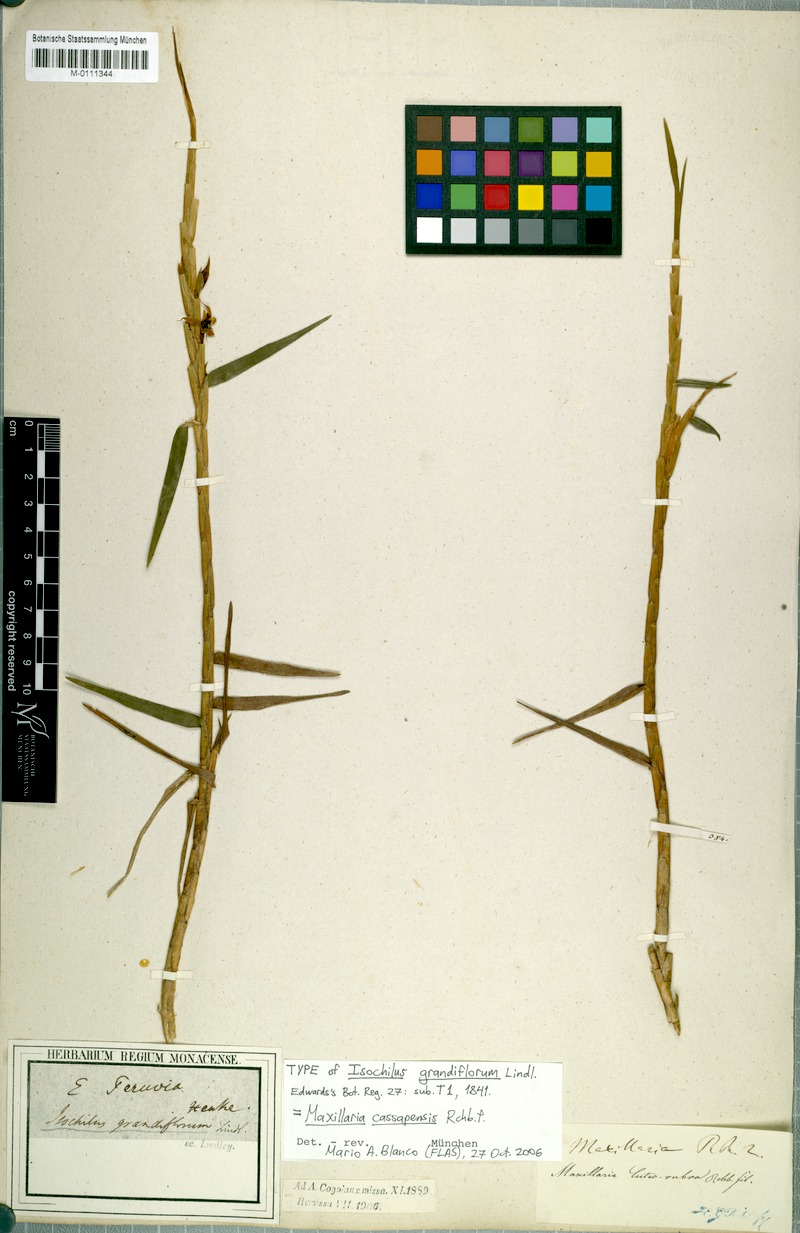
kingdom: Plantae
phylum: Tracheophyta
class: Liliopsida
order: Asparagales
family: Orchidaceae
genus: Maxillaria
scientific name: Maxillaria cassapensis
